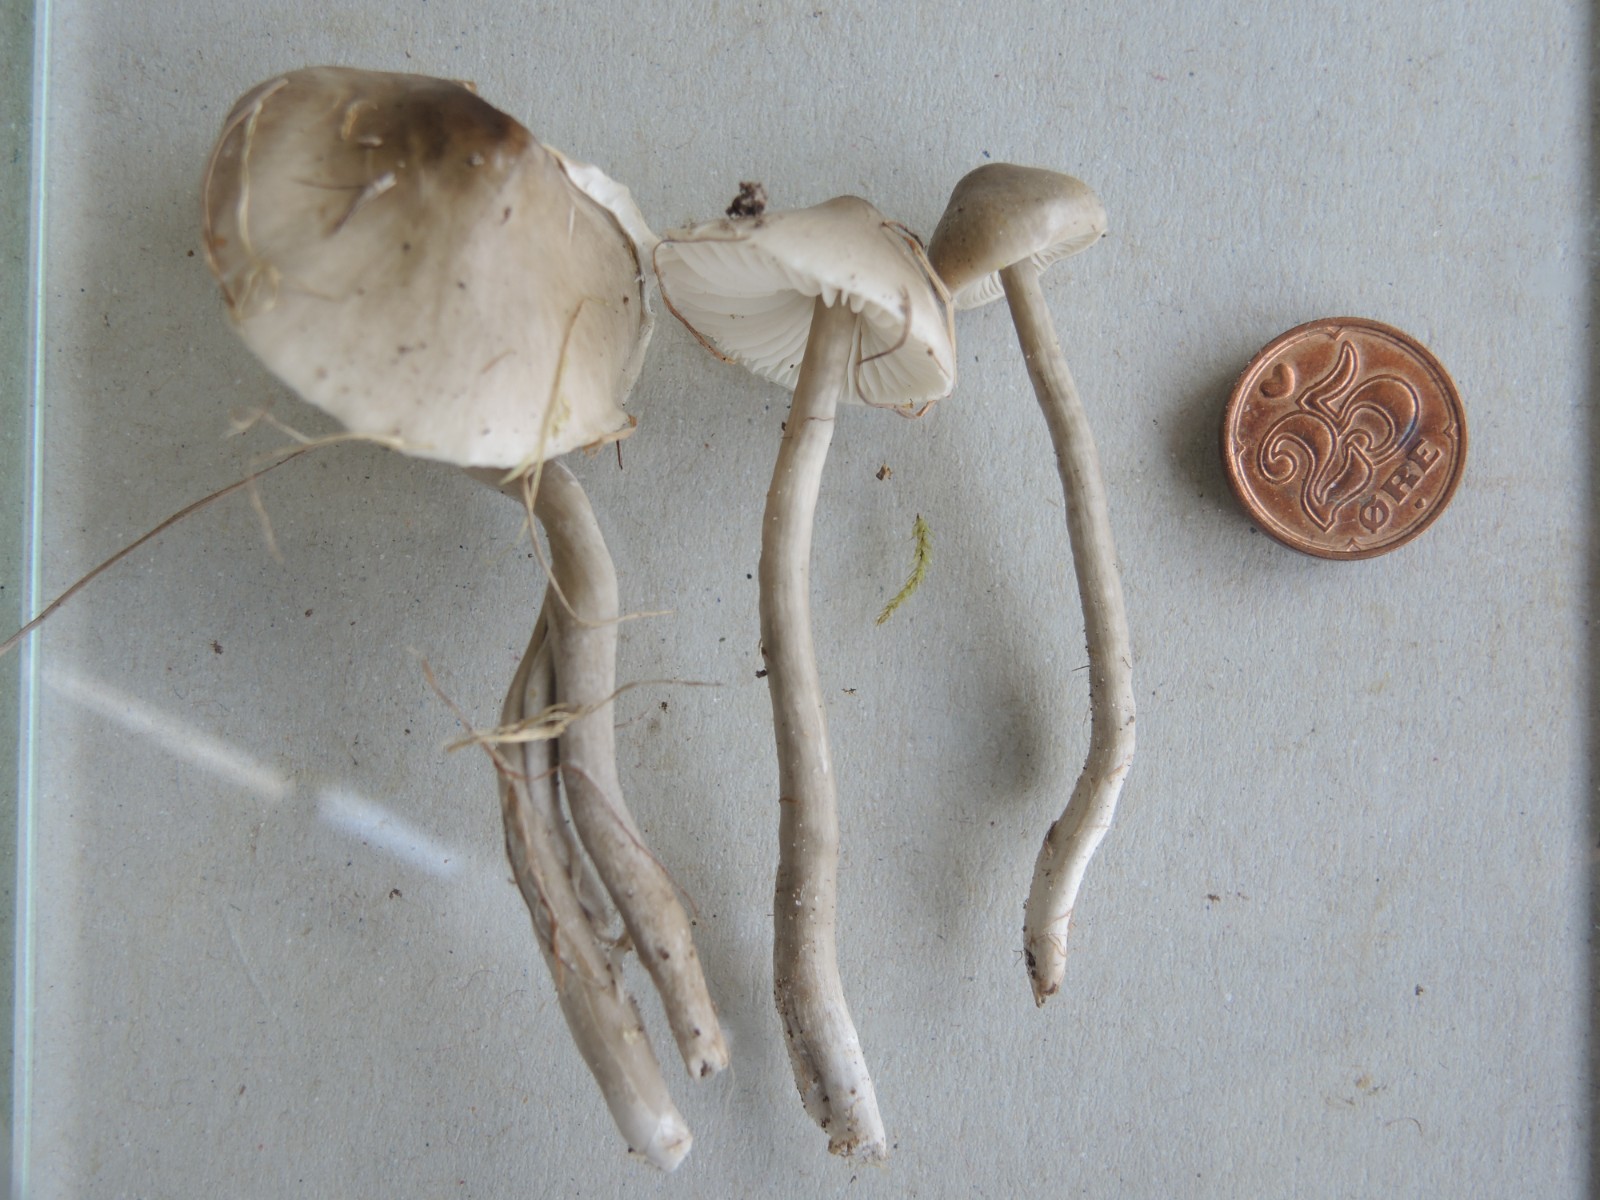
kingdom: Fungi
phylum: Basidiomycota
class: Agaricomycetes
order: Agaricales
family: Hygrophoraceae
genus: Gliophorus
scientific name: Gliophorus irrigatus
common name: slimet vokshat
